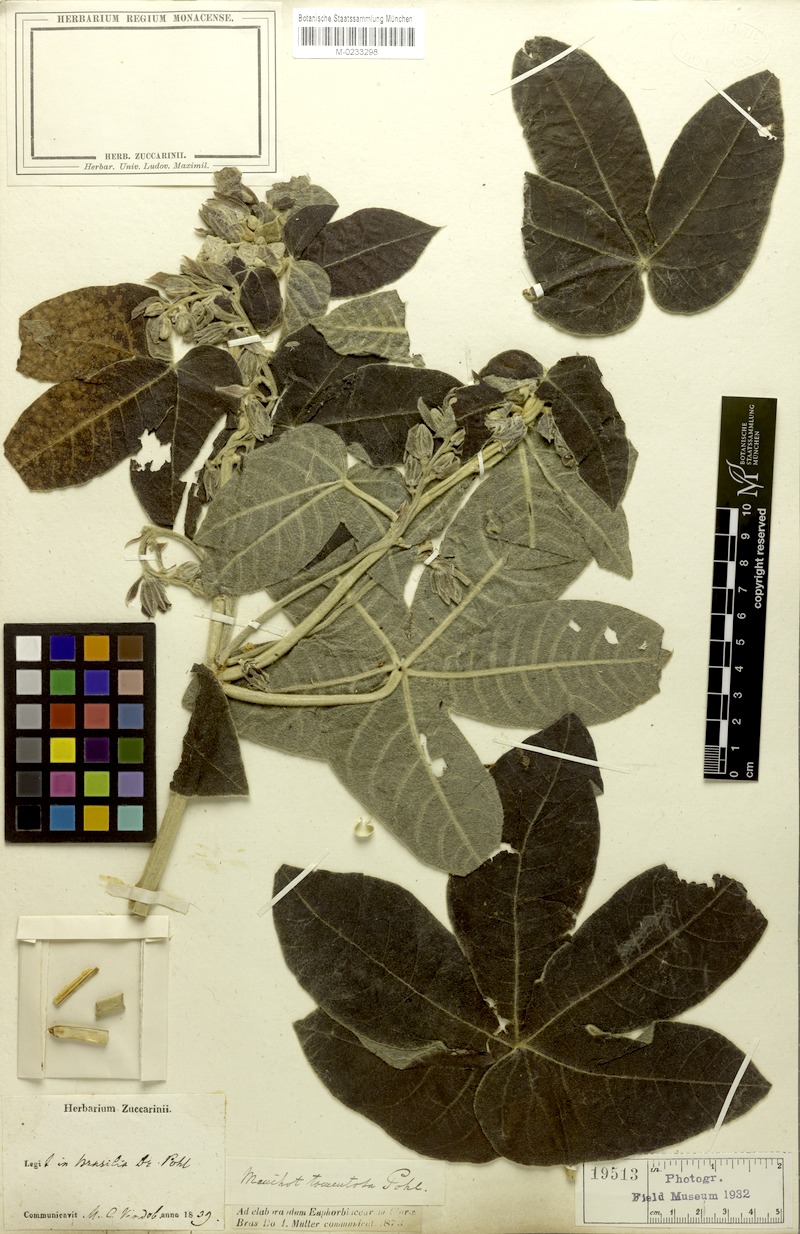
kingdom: Plantae
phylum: Tracheophyta
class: Magnoliopsida
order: Malpighiales
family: Euphorbiaceae
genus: Manihot
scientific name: Manihot tomentosa
